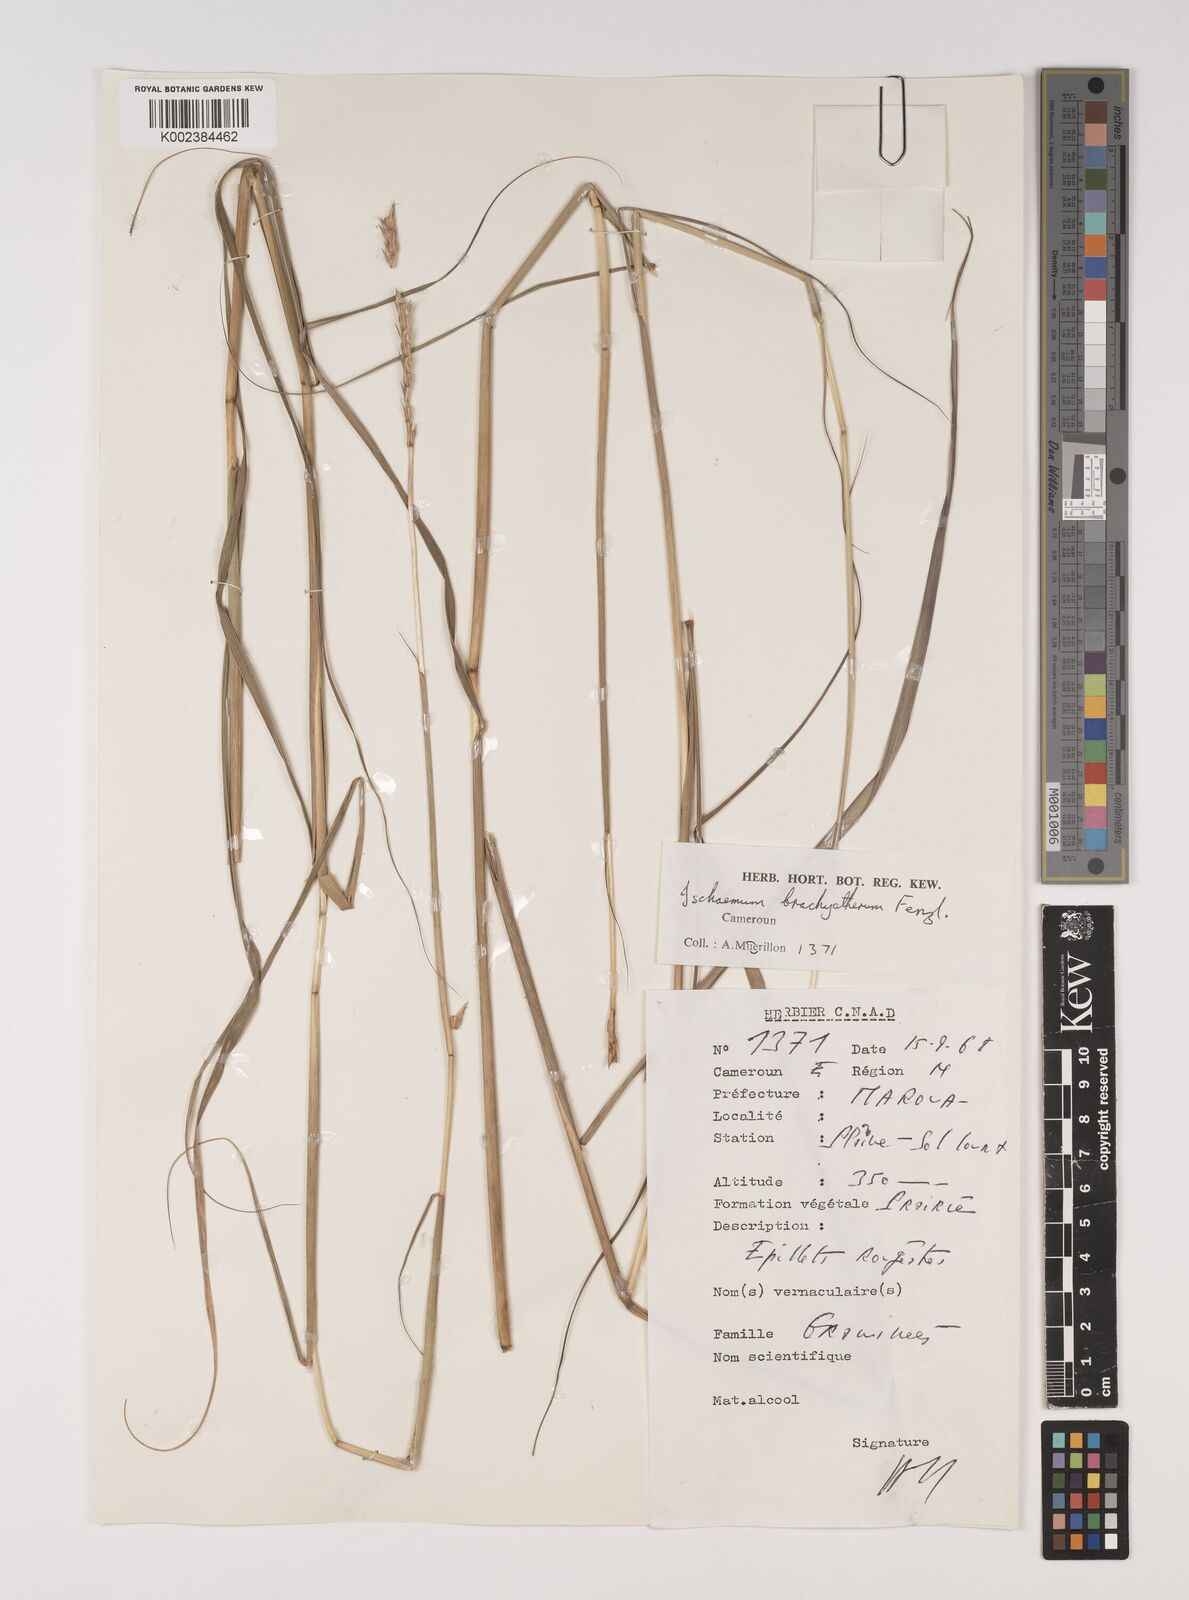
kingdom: Plantae
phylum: Tracheophyta
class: Liliopsida
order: Poales
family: Poaceae
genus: Ischaemum
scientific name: Ischaemum afrum
